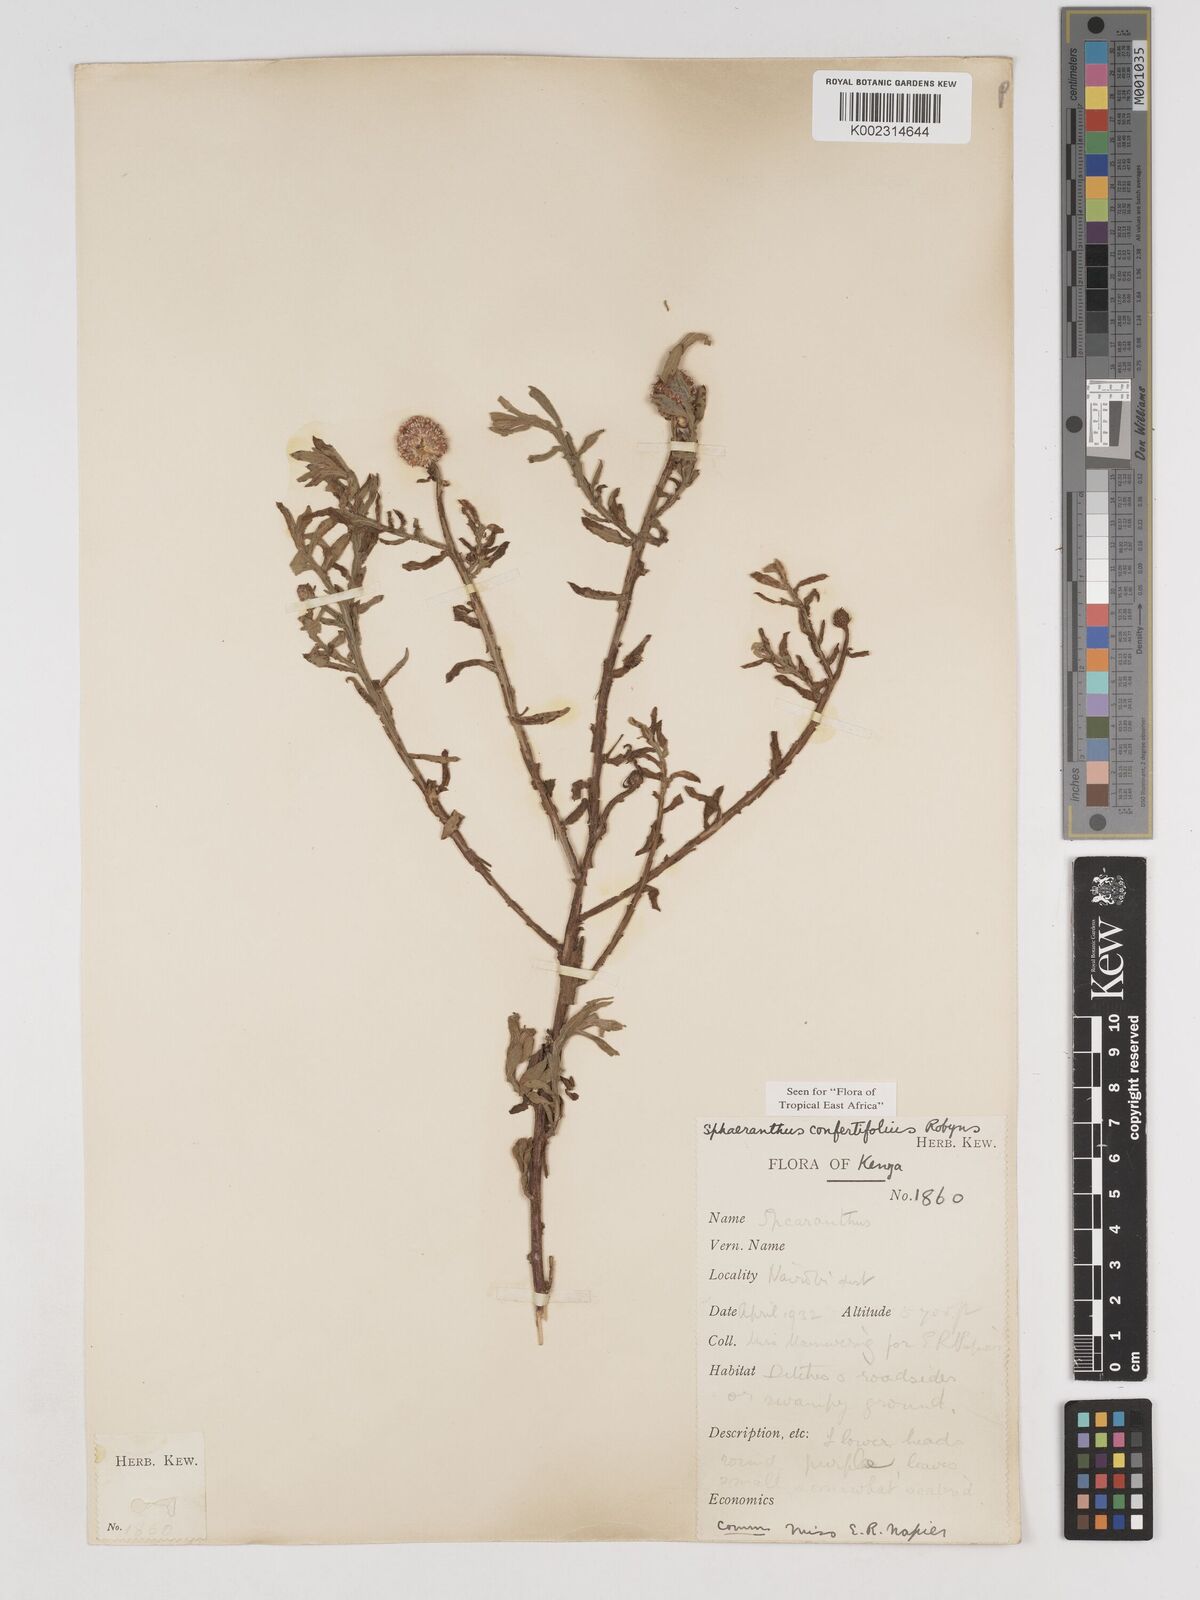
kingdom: Plantae
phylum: Tracheophyta
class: Magnoliopsida
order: Asterales
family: Asteraceae
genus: Sphaeranthus
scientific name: Sphaeranthus confertifolius
